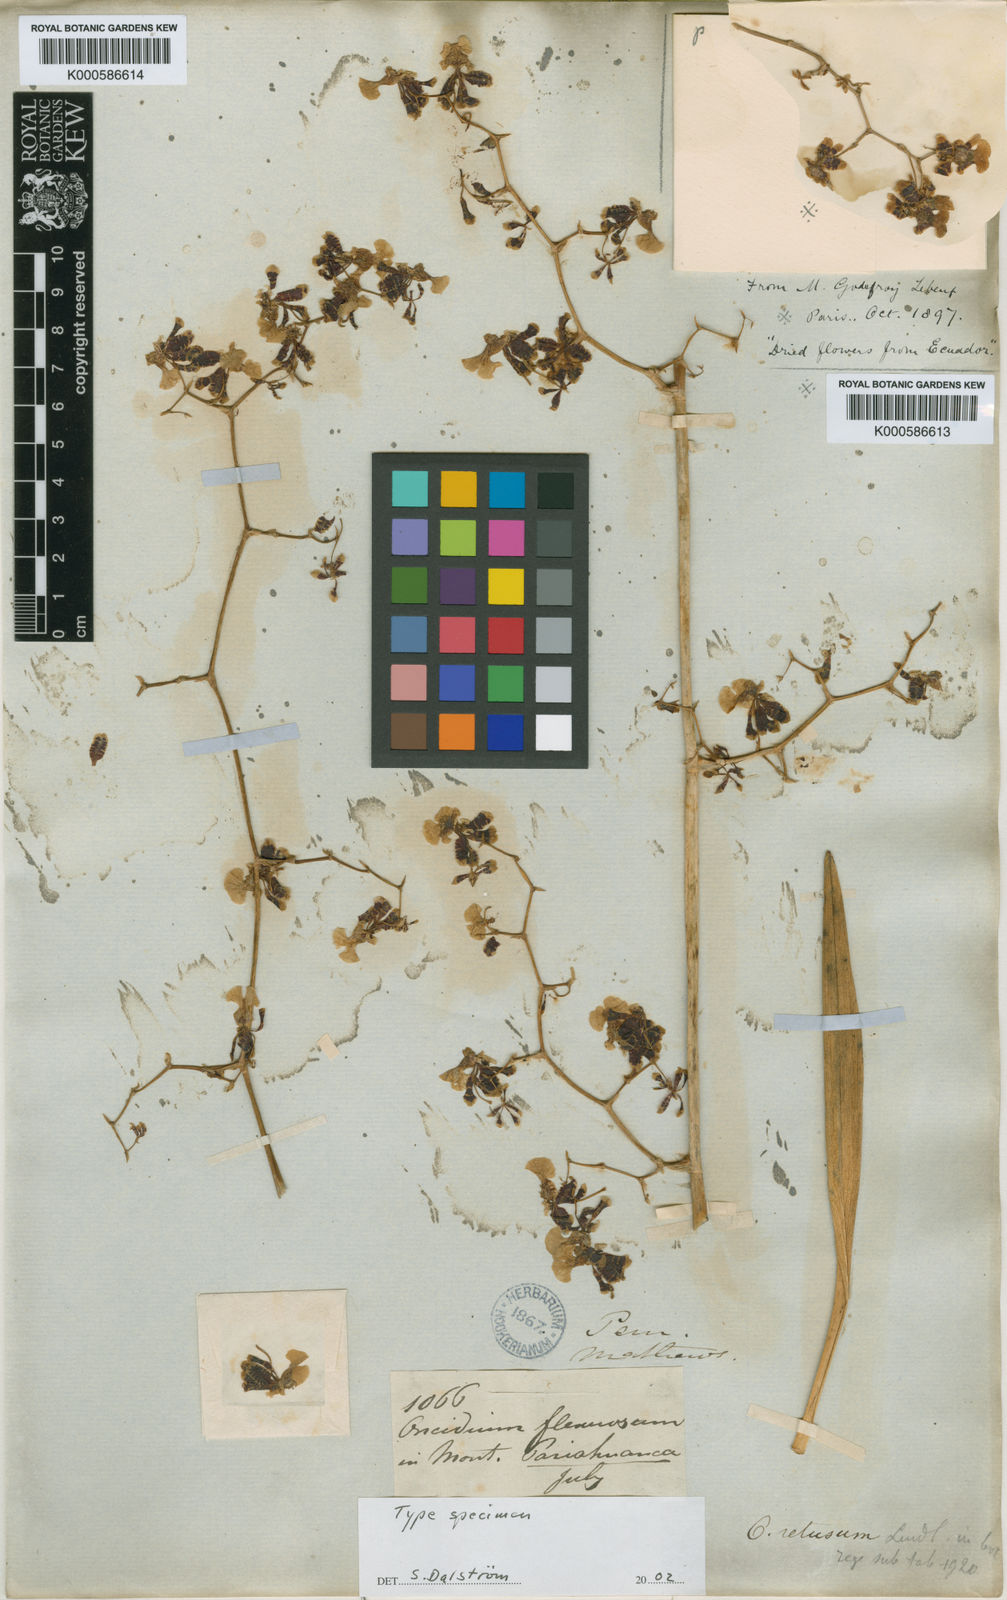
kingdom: Plantae
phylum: Tracheophyta
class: Liliopsida
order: Asparagales
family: Orchidaceae
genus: Gomesa
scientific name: Gomesa flexuosa
